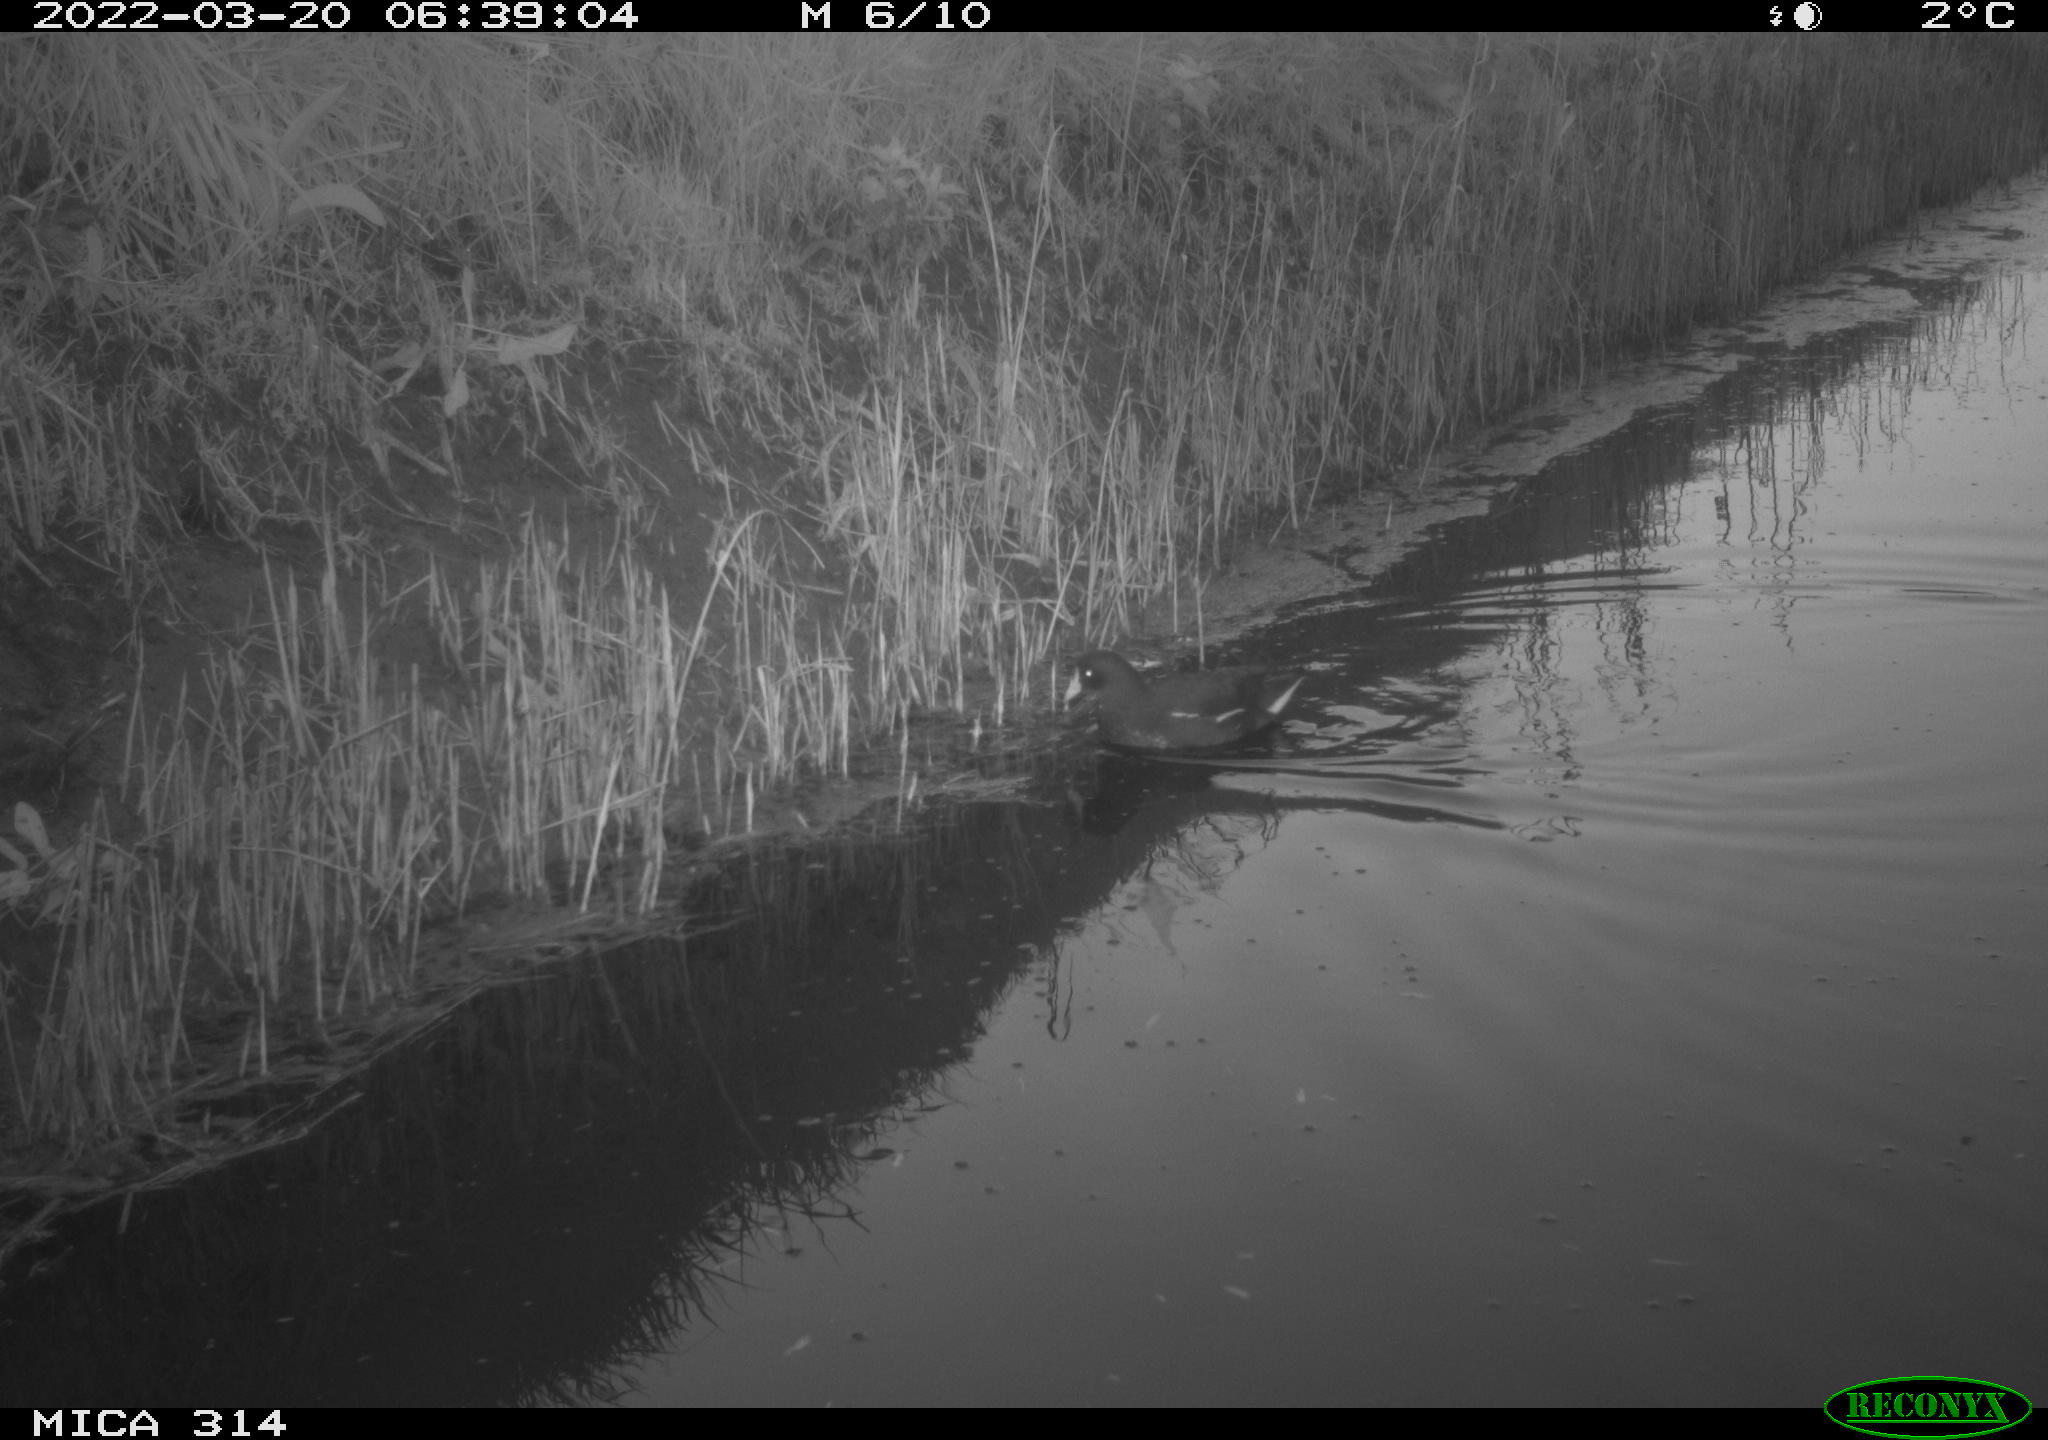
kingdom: Animalia
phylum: Chordata
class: Aves
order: Gruiformes
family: Rallidae
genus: Gallinula
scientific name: Gallinula chloropus
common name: Common moorhen
